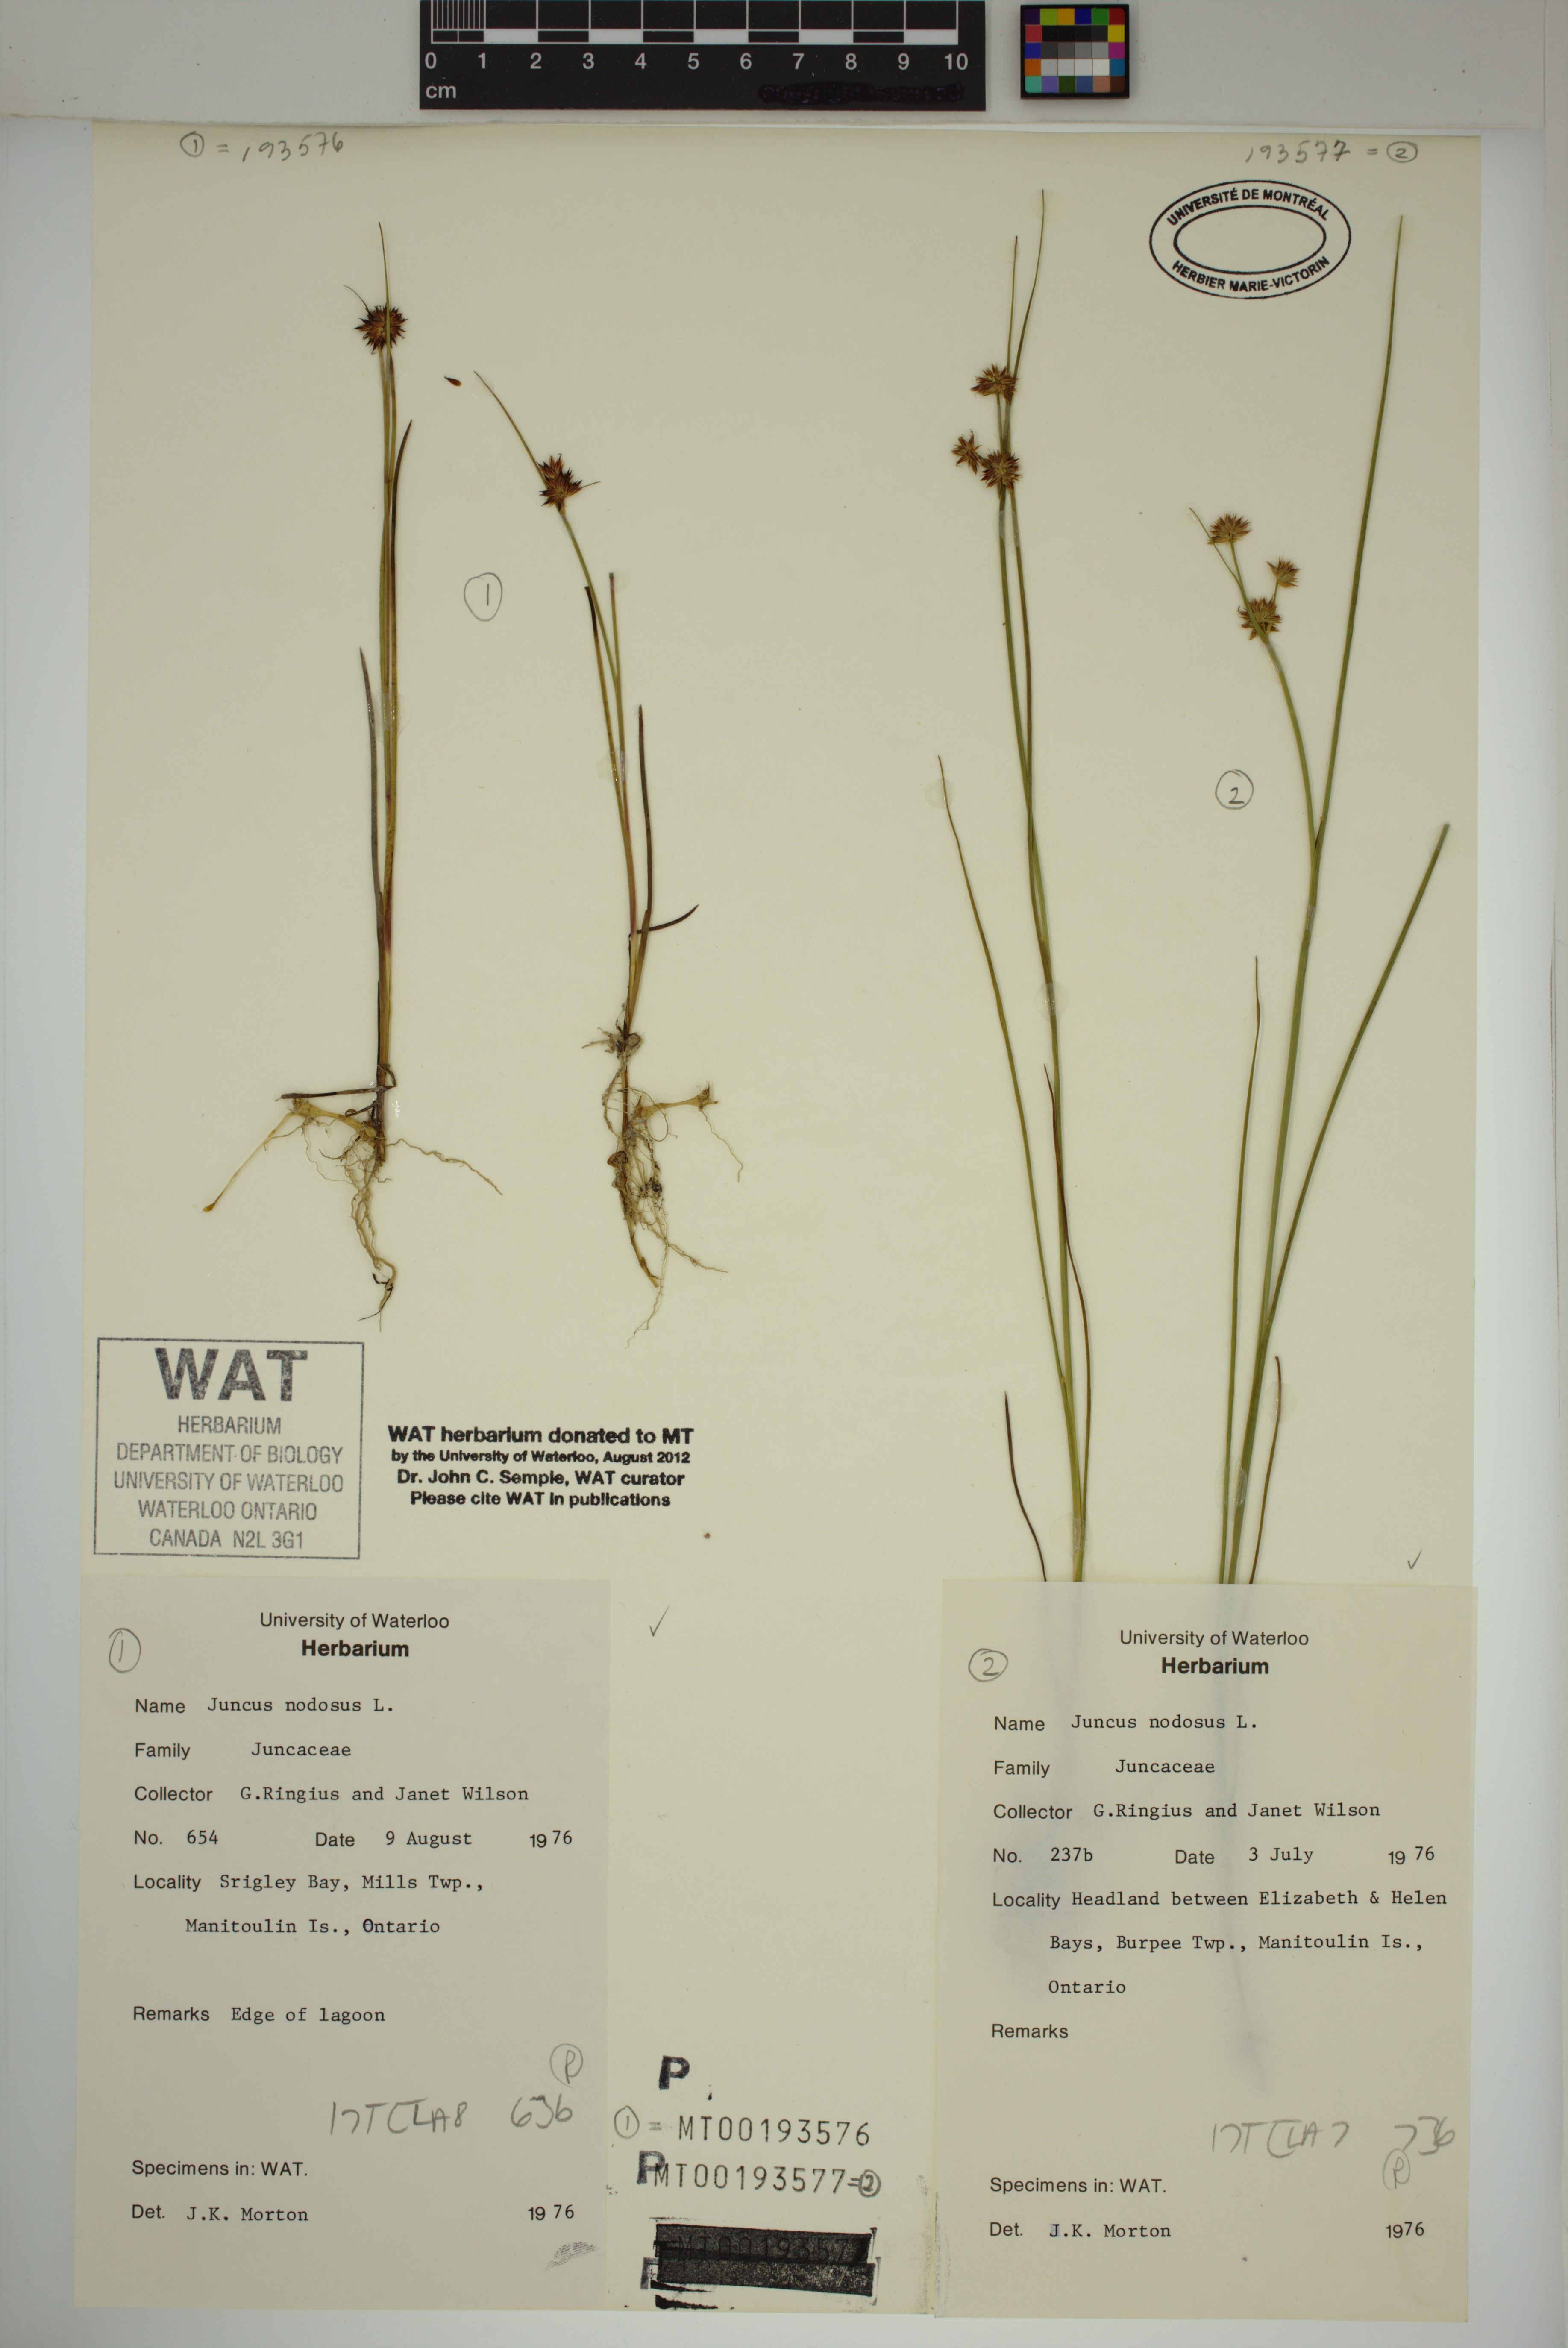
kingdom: Plantae
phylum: Tracheophyta
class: Liliopsida
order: Poales
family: Juncaceae
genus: Juncus
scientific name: Juncus nodosus
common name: Knotted rush
